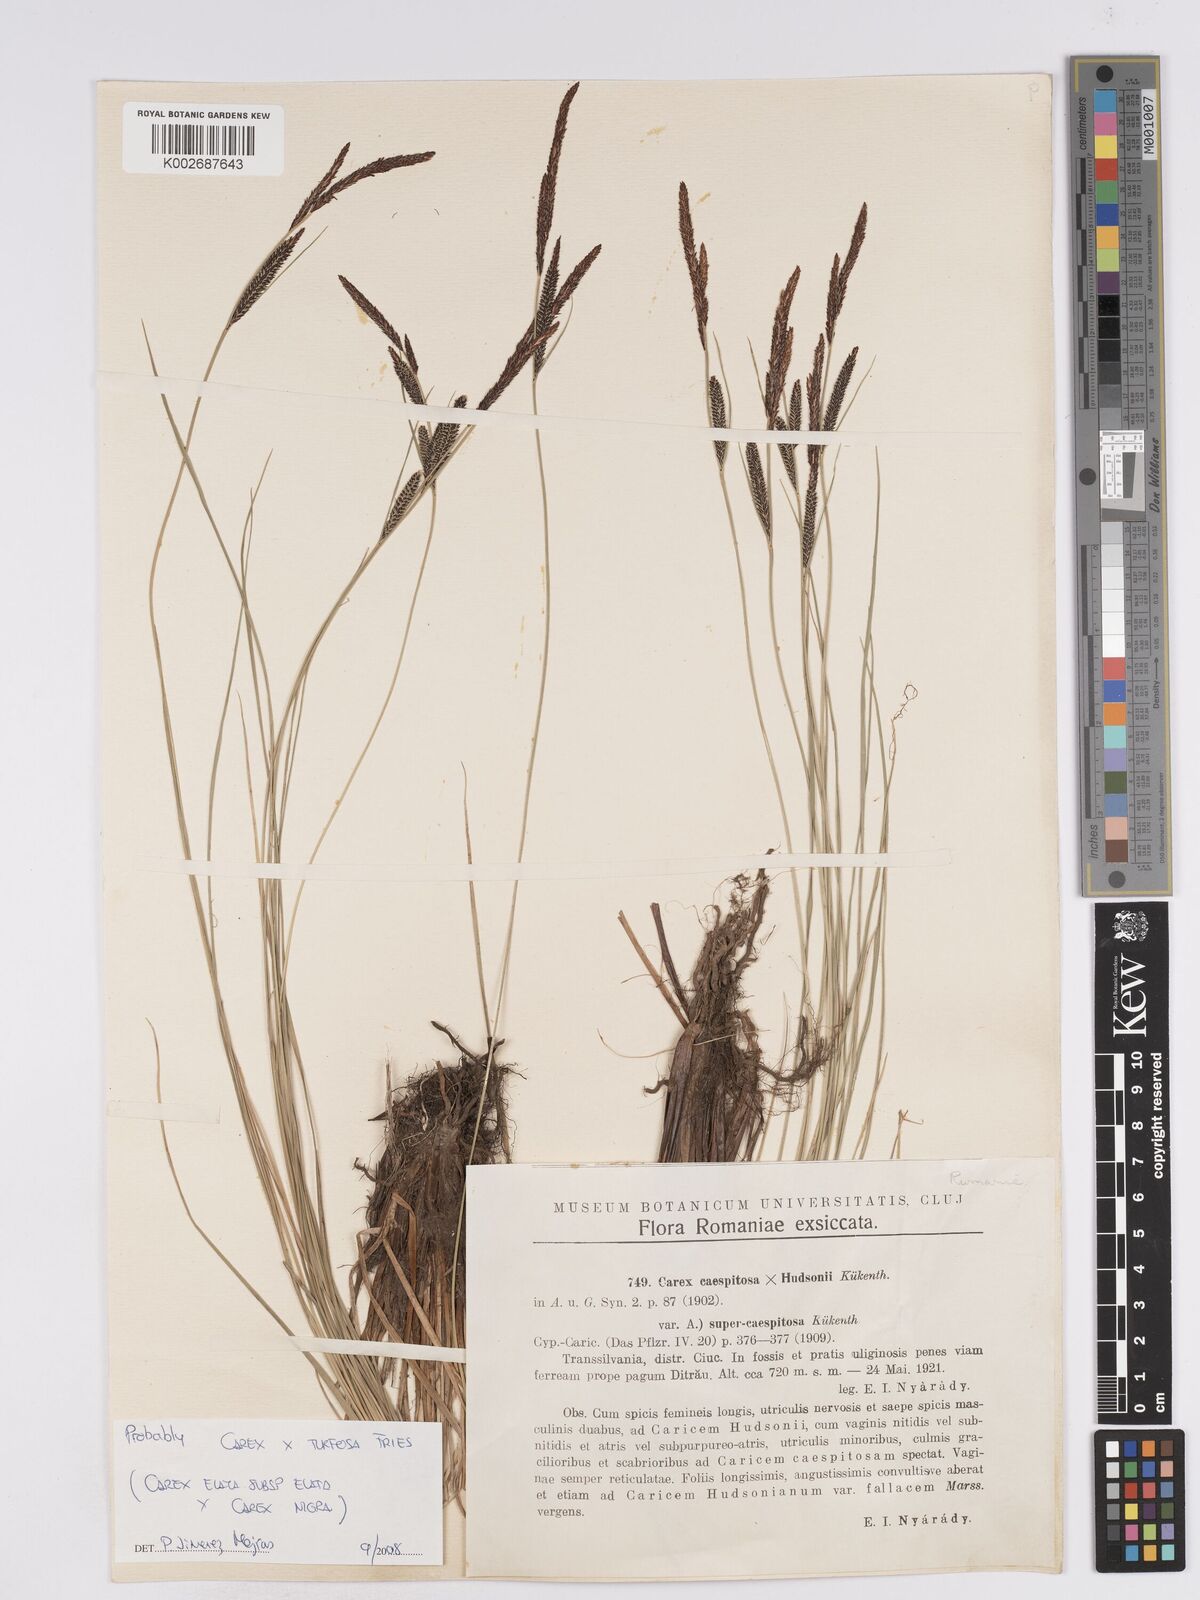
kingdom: Plantae
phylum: Tracheophyta
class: Liliopsida
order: Poales
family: Cyperaceae
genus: Carex
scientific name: Carex nigra
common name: Common sedge
